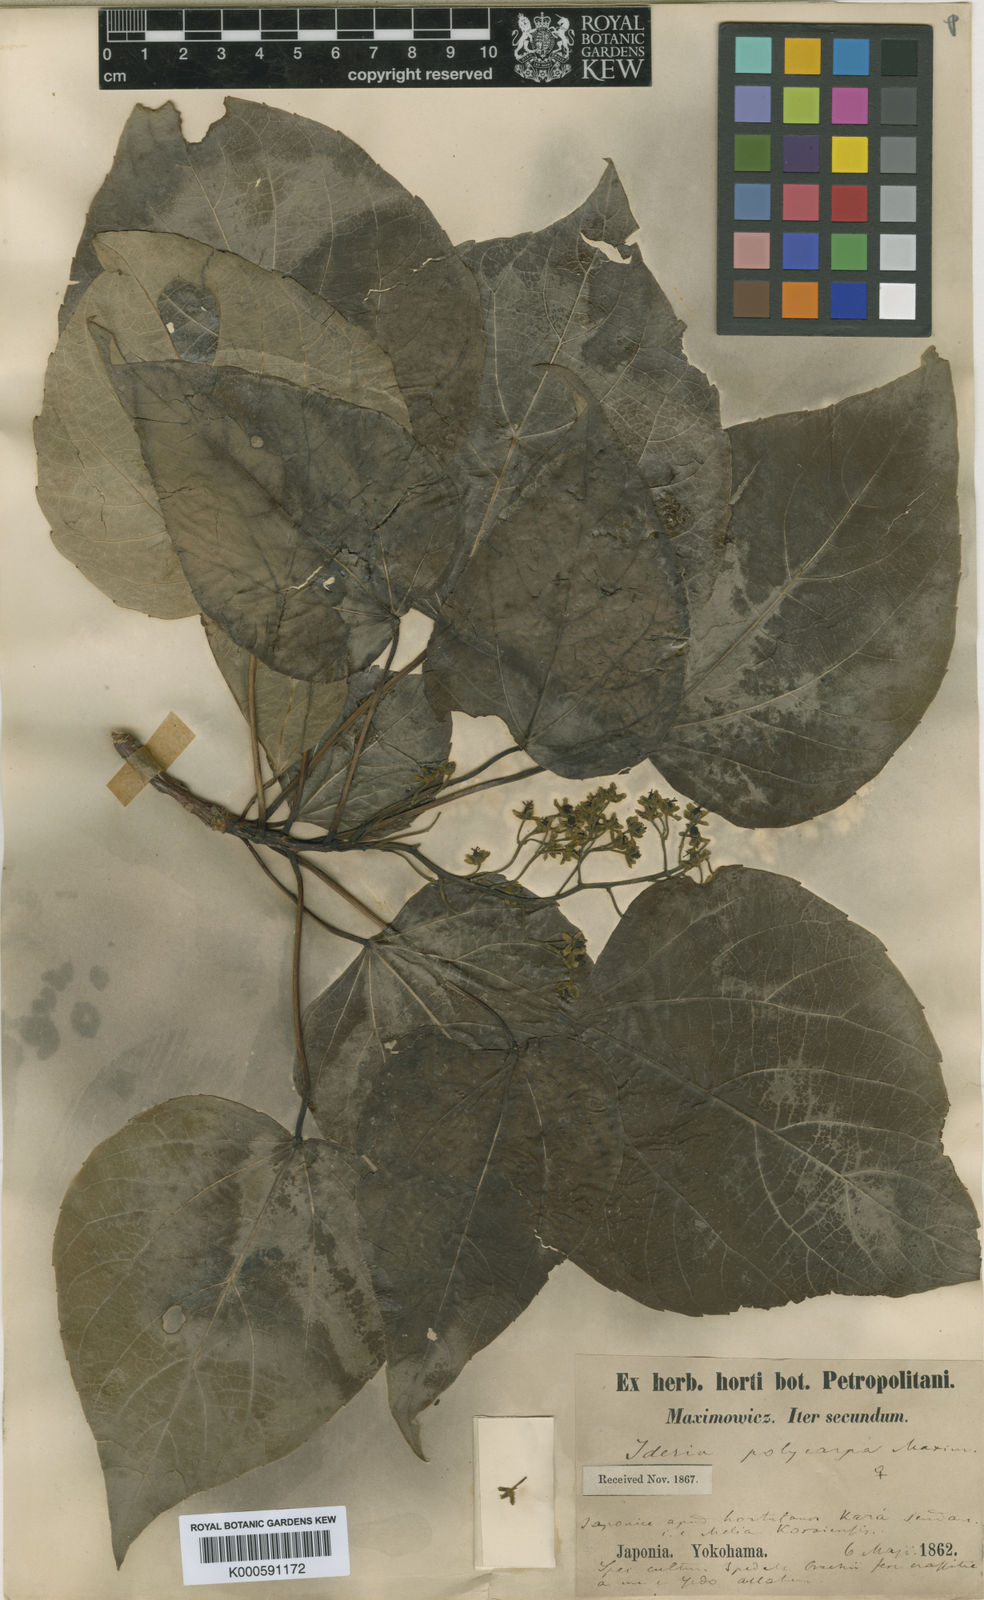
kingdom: Plantae
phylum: Tracheophyta
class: Magnoliopsida
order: Malpighiales
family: Salicaceae
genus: Idesia
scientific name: Idesia polycarpa
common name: Idesia tree
